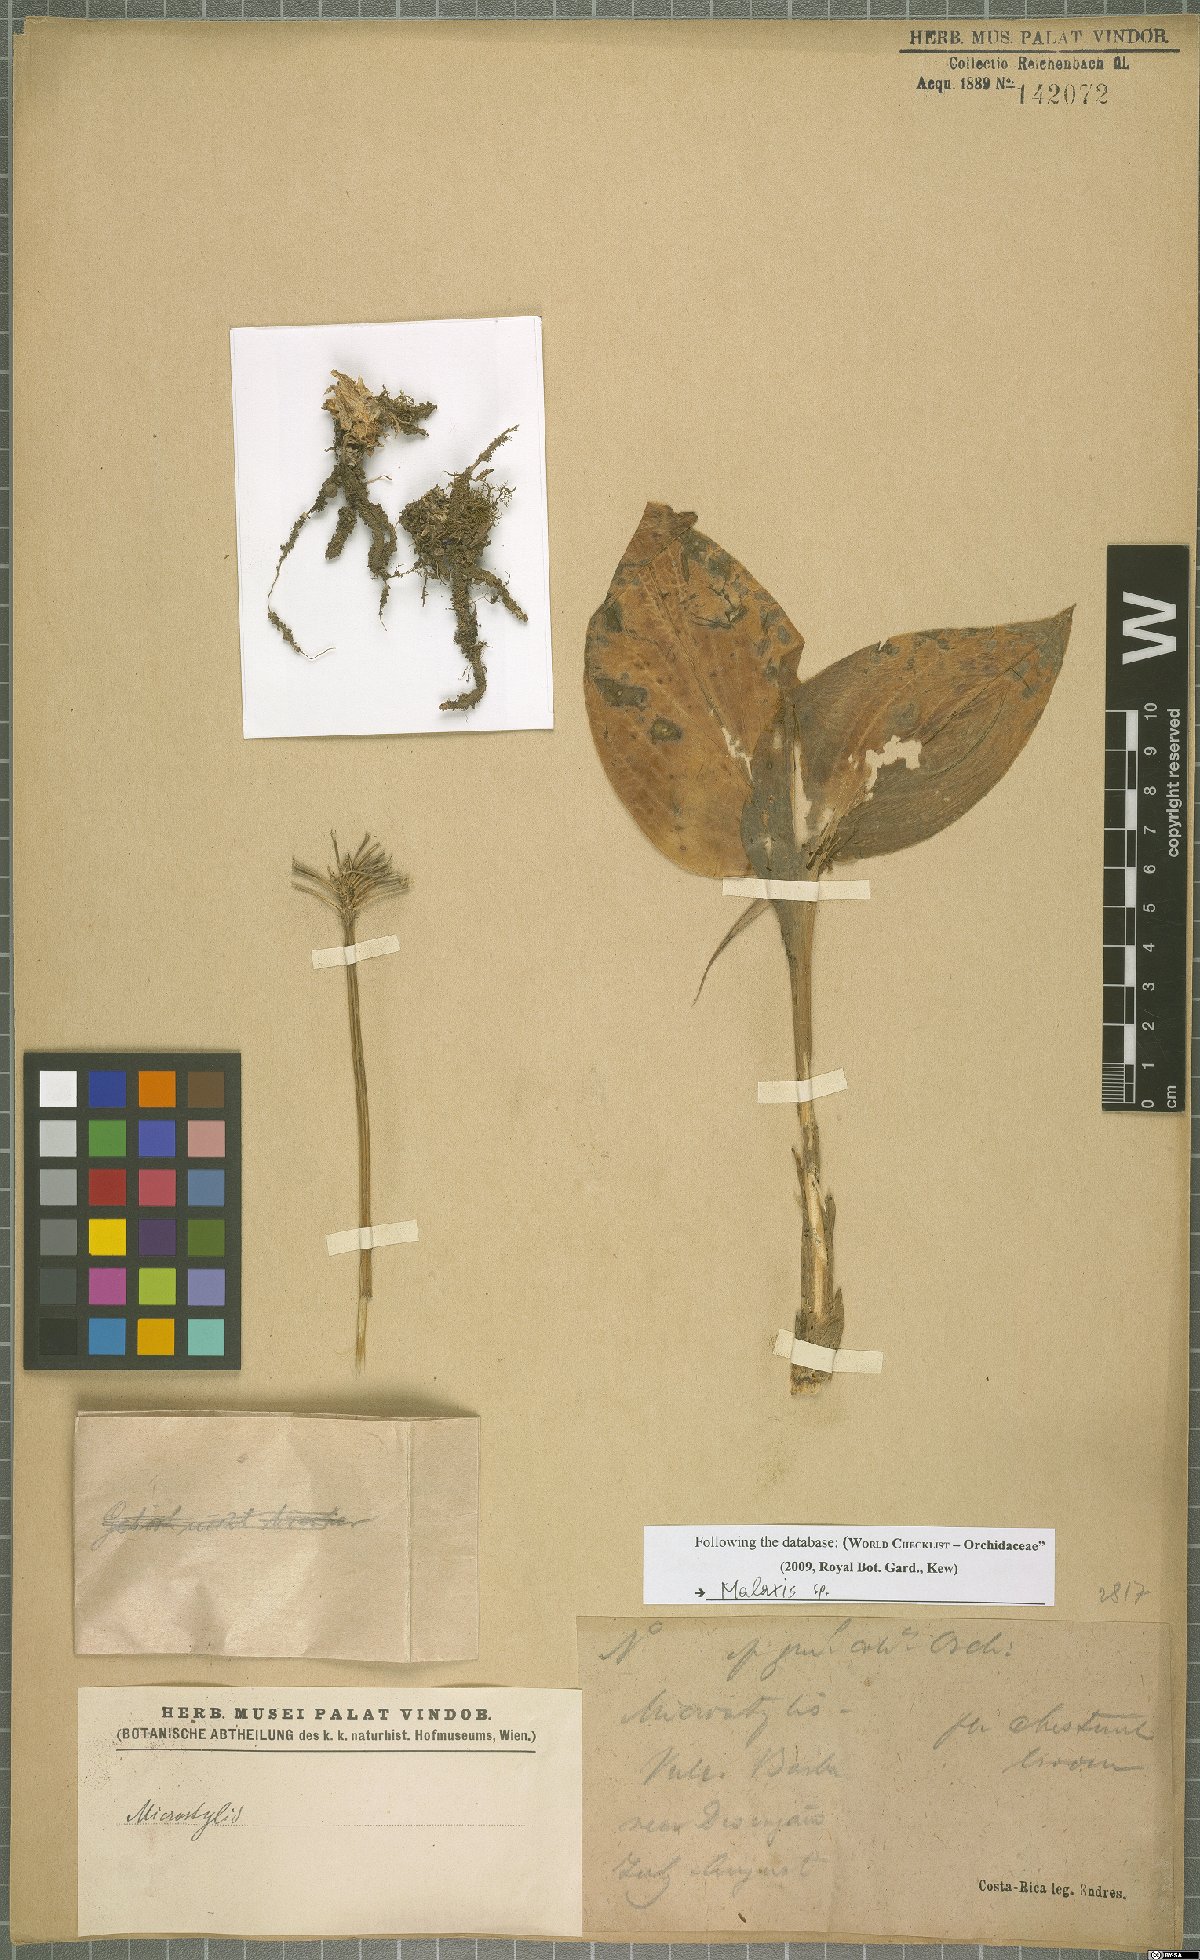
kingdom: Plantae
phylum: Tracheophyta
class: Liliopsida
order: Asparagales
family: Orchidaceae
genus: Malaxis
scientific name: Malaxis
